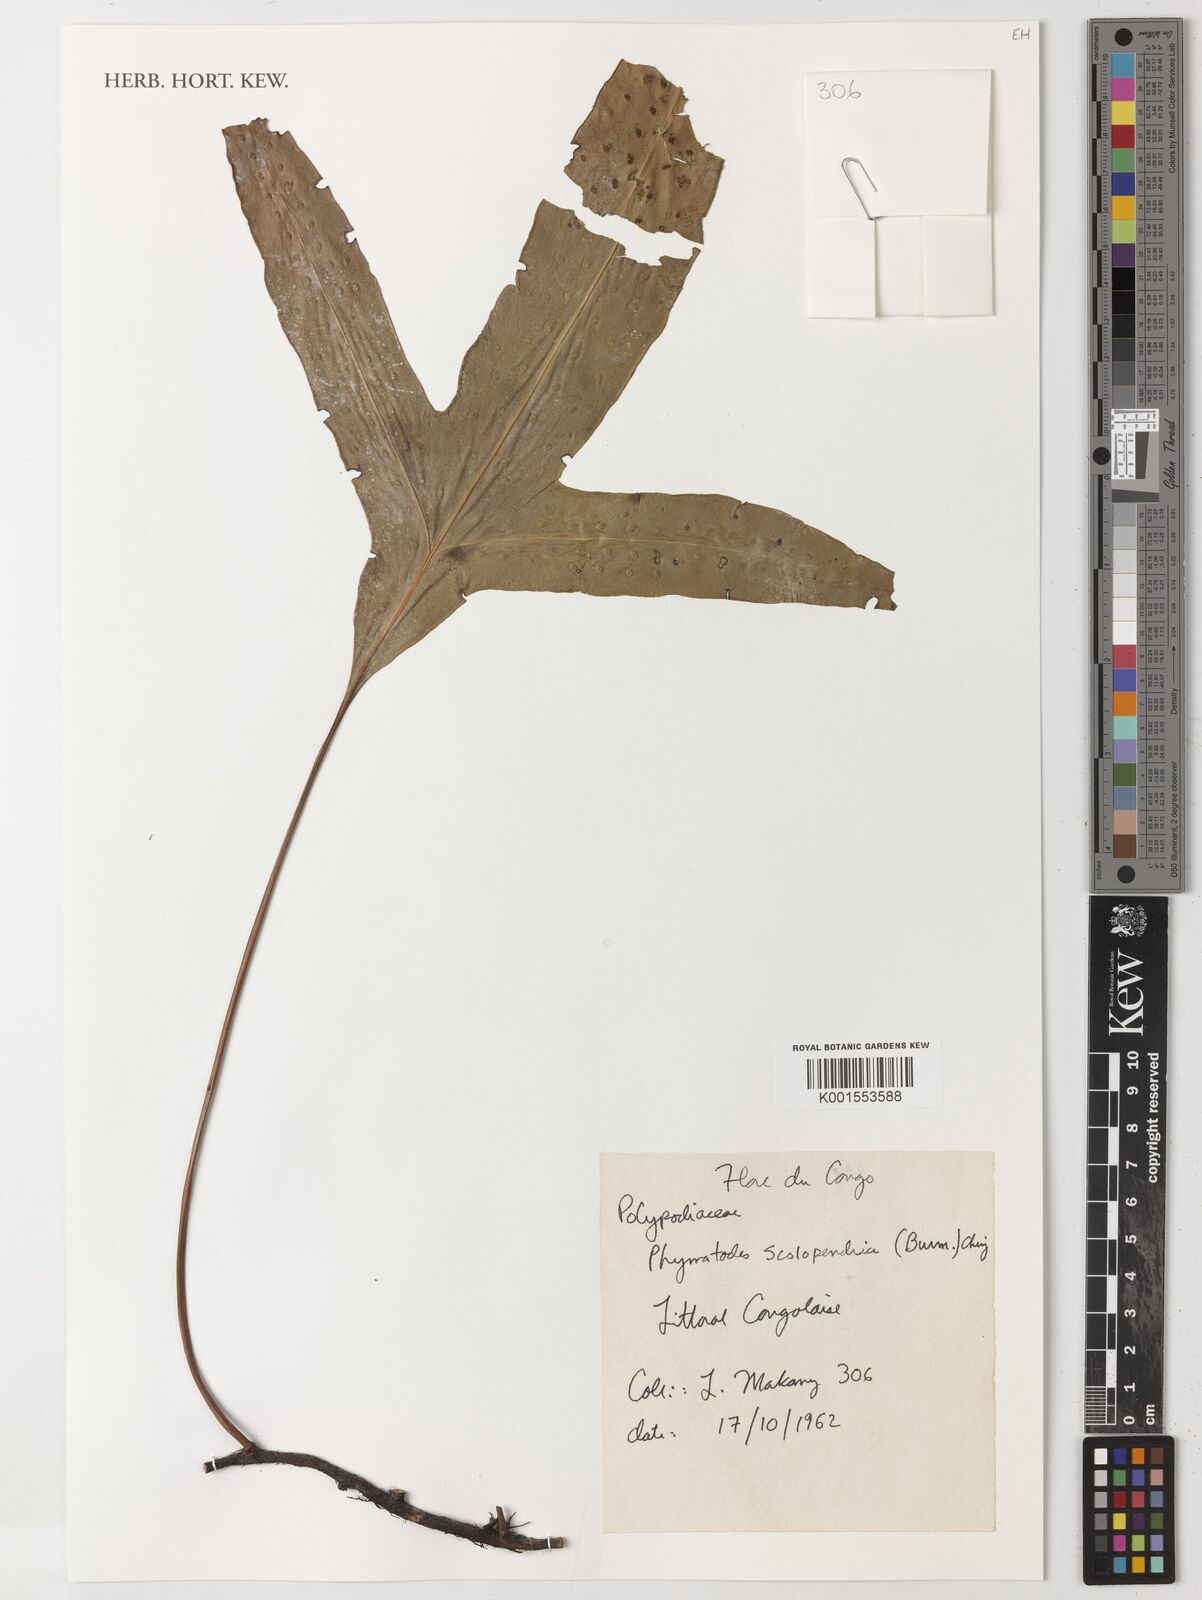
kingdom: Plantae
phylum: Tracheophyta
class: Polypodiopsida
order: Polypodiales
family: Polypodiaceae
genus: Microsorum
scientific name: Microsorum scolopendria
